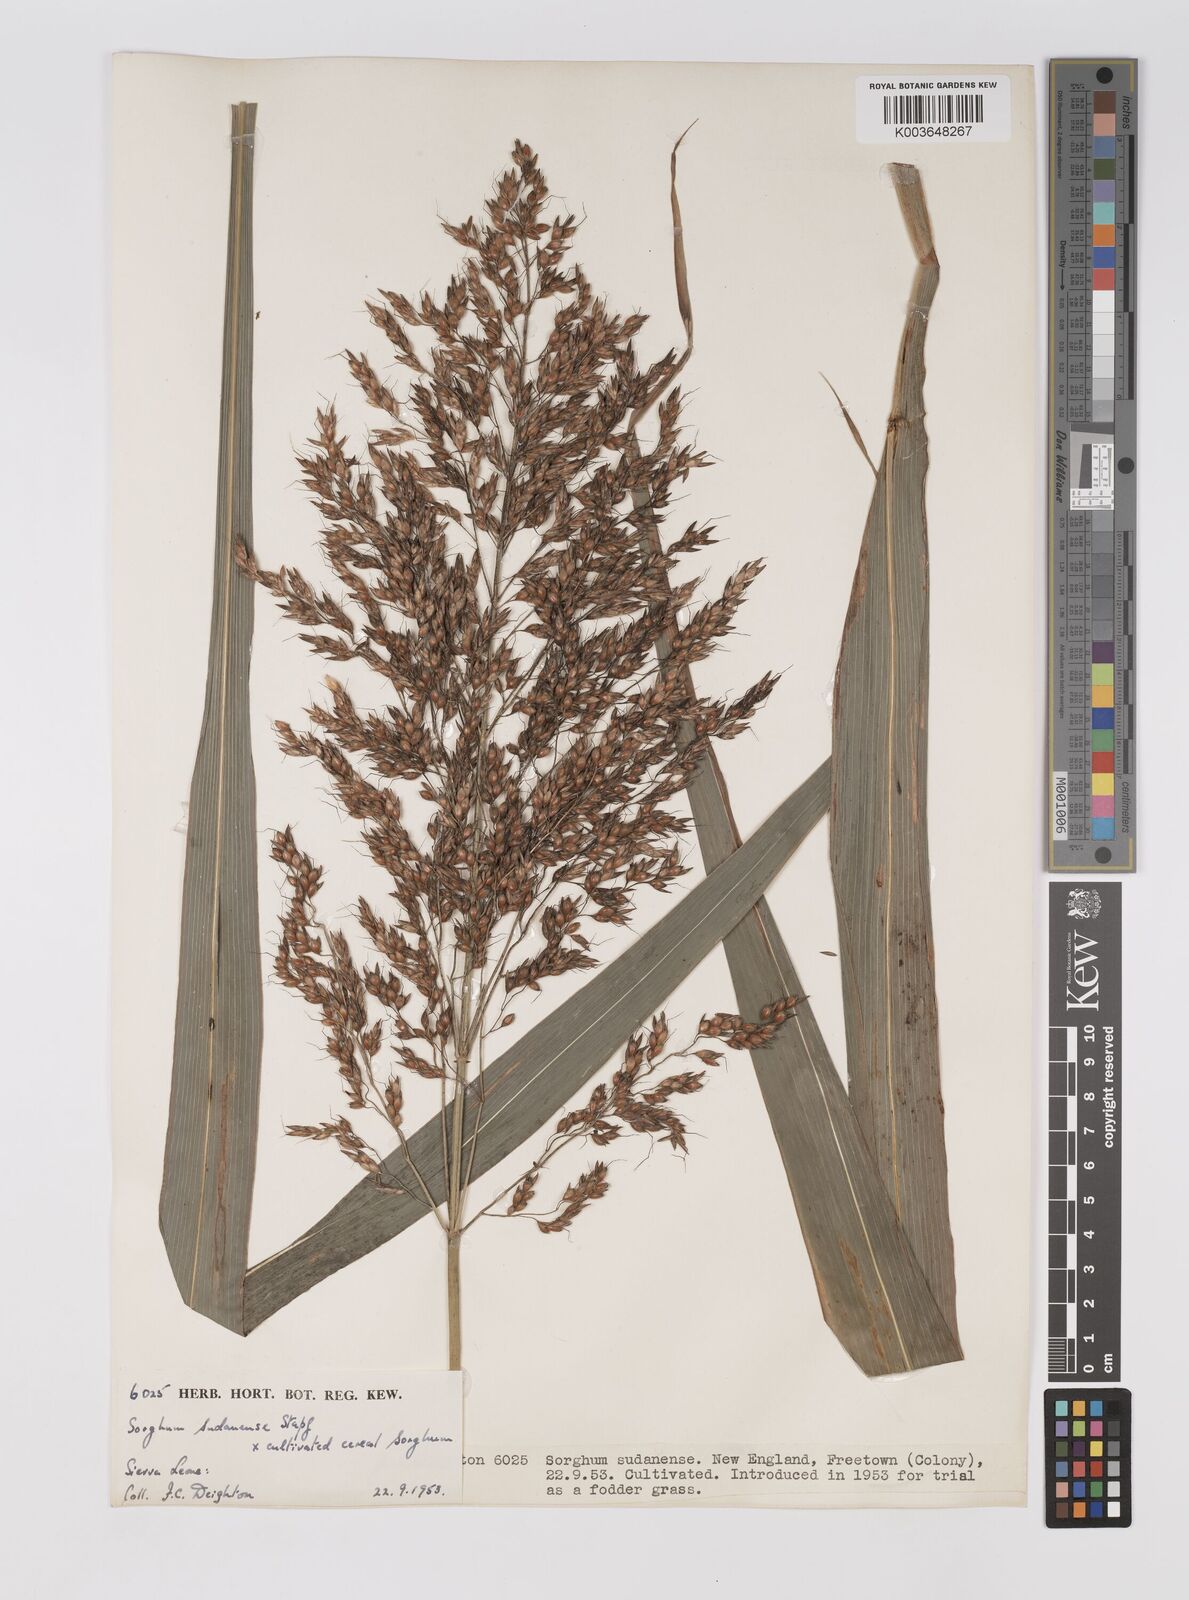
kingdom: Plantae
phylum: Tracheophyta
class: Liliopsida
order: Poales
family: Poaceae
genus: Sorghum
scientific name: Sorghum drummondii
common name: Sudangrass
